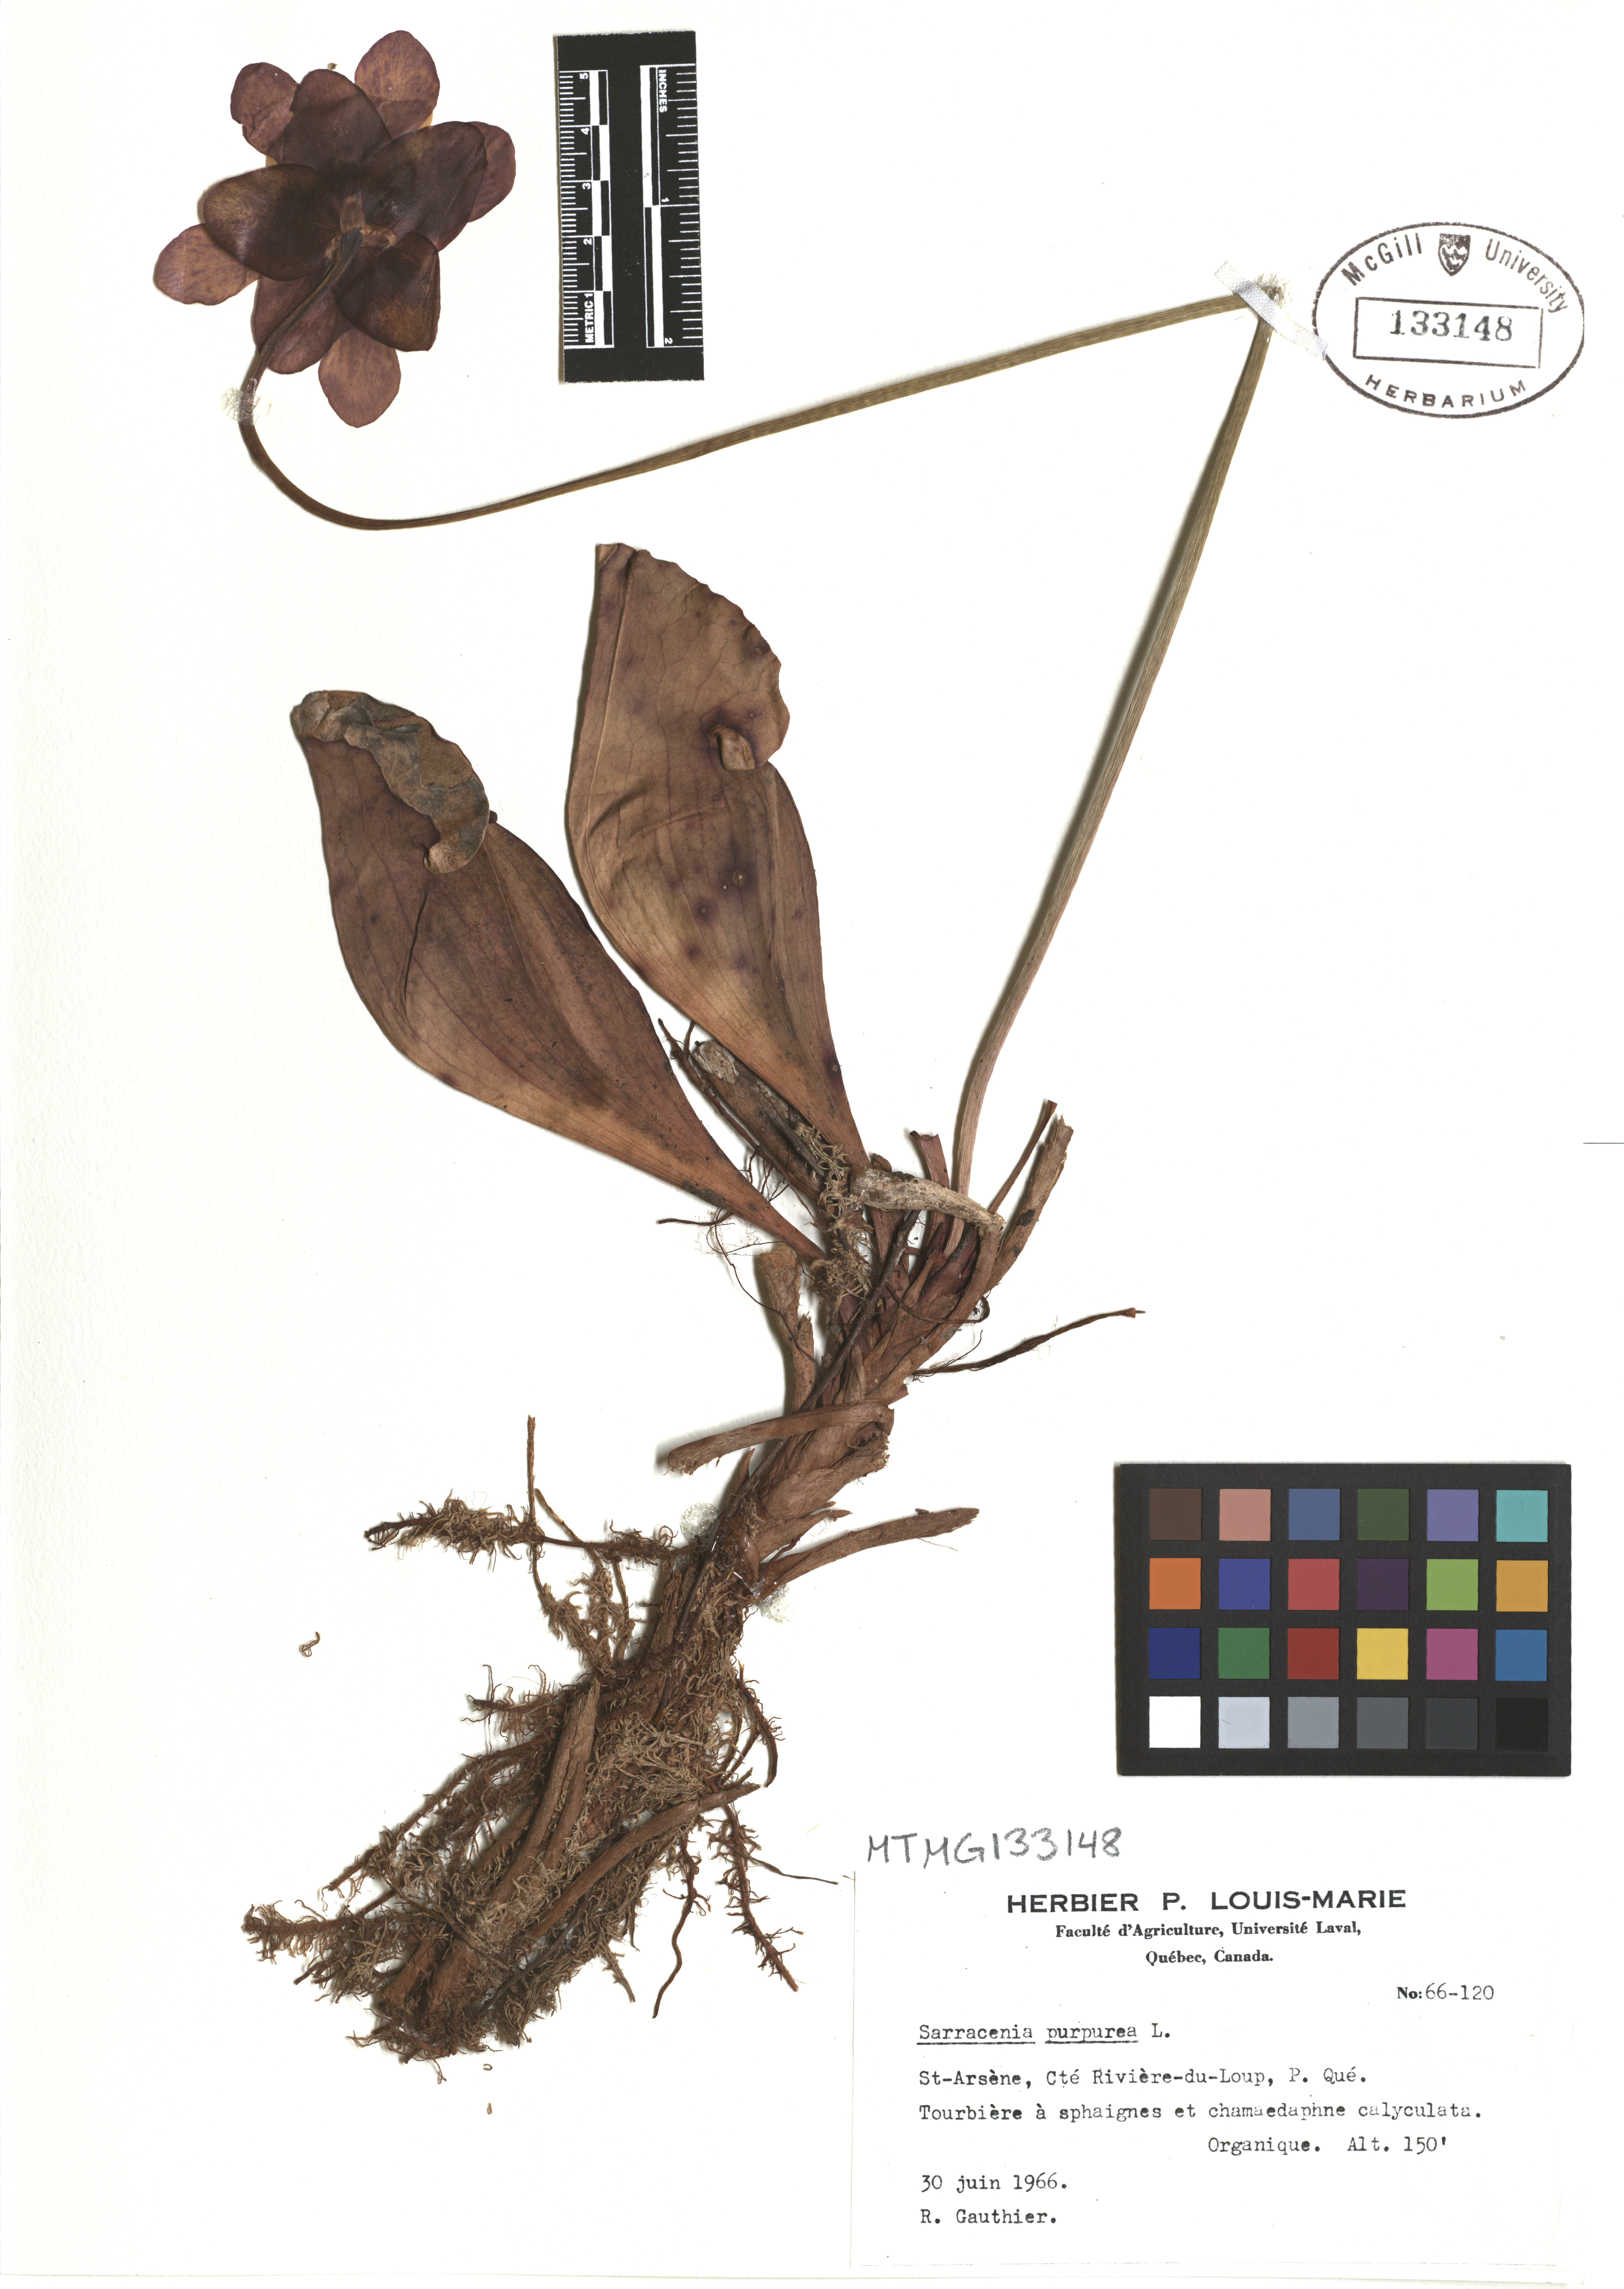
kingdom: Plantae
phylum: Tracheophyta
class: Magnoliopsida
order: Ericales
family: Sarraceniaceae
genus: Sarracenia
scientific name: Sarracenia purpurea
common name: Pitcherplant
